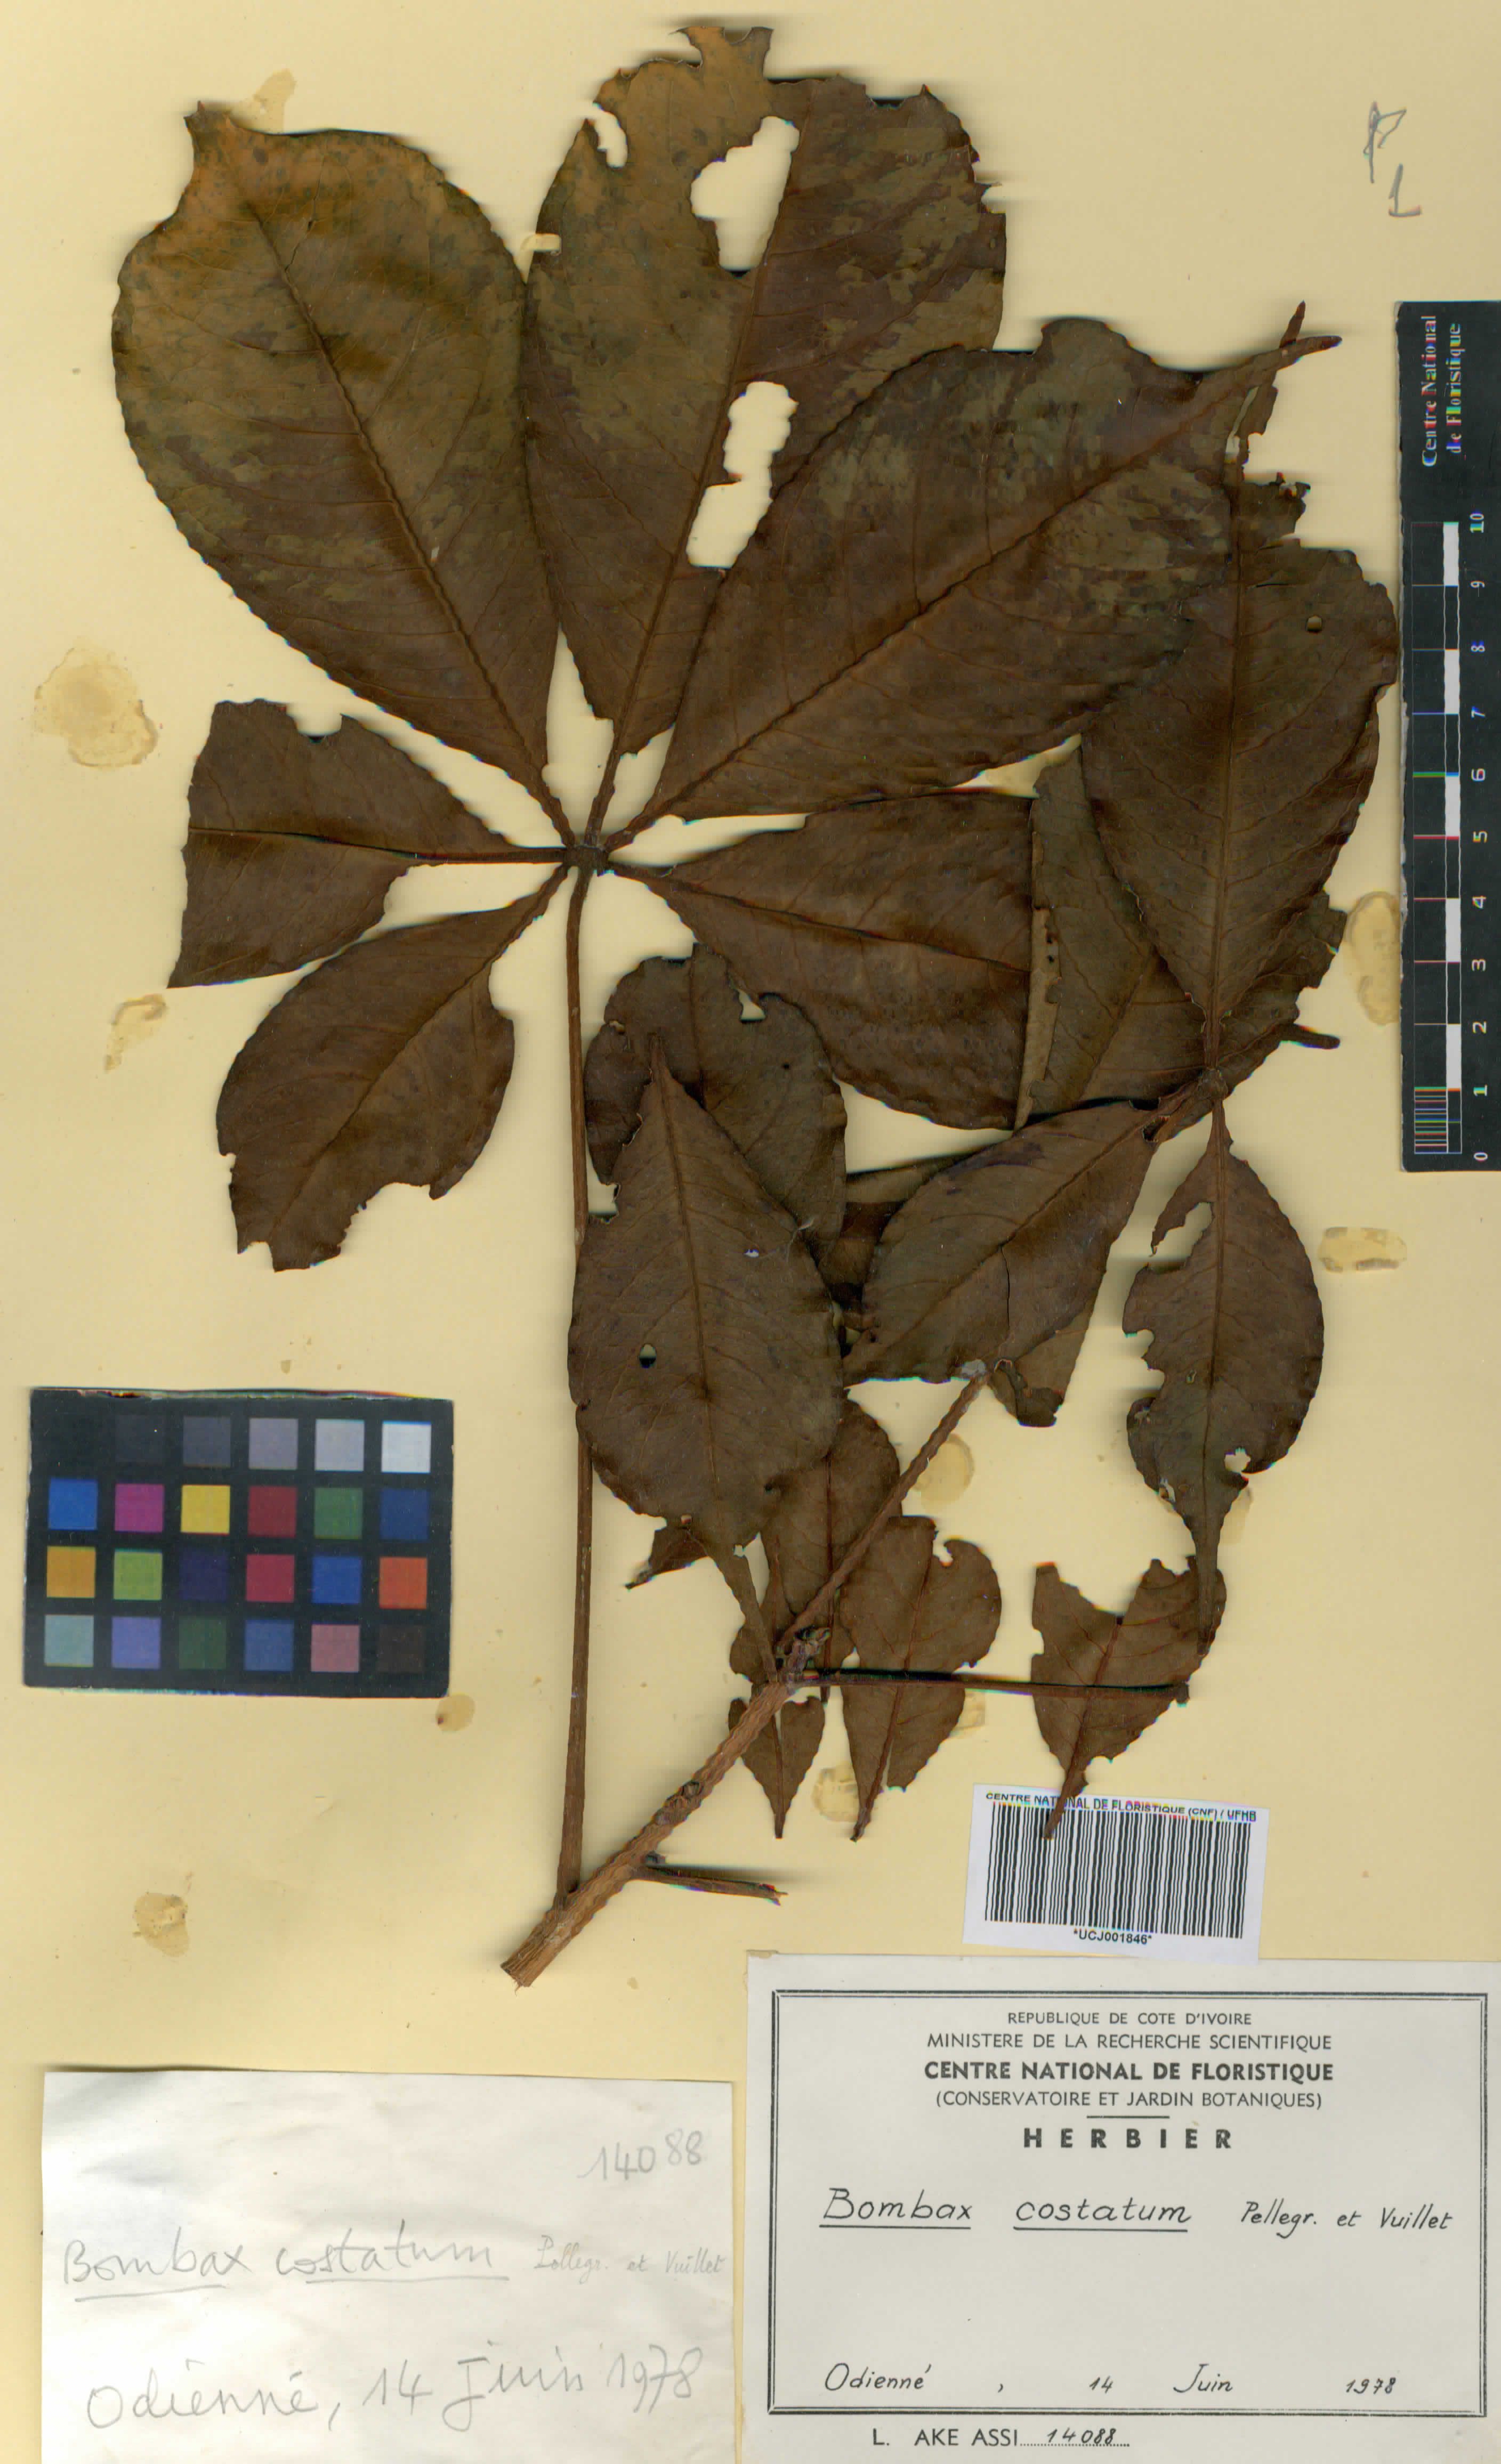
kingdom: Plantae
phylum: Tracheophyta
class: Magnoliopsida
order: Malvales
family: Malvaceae
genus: Bombax
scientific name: Bombax costatum
